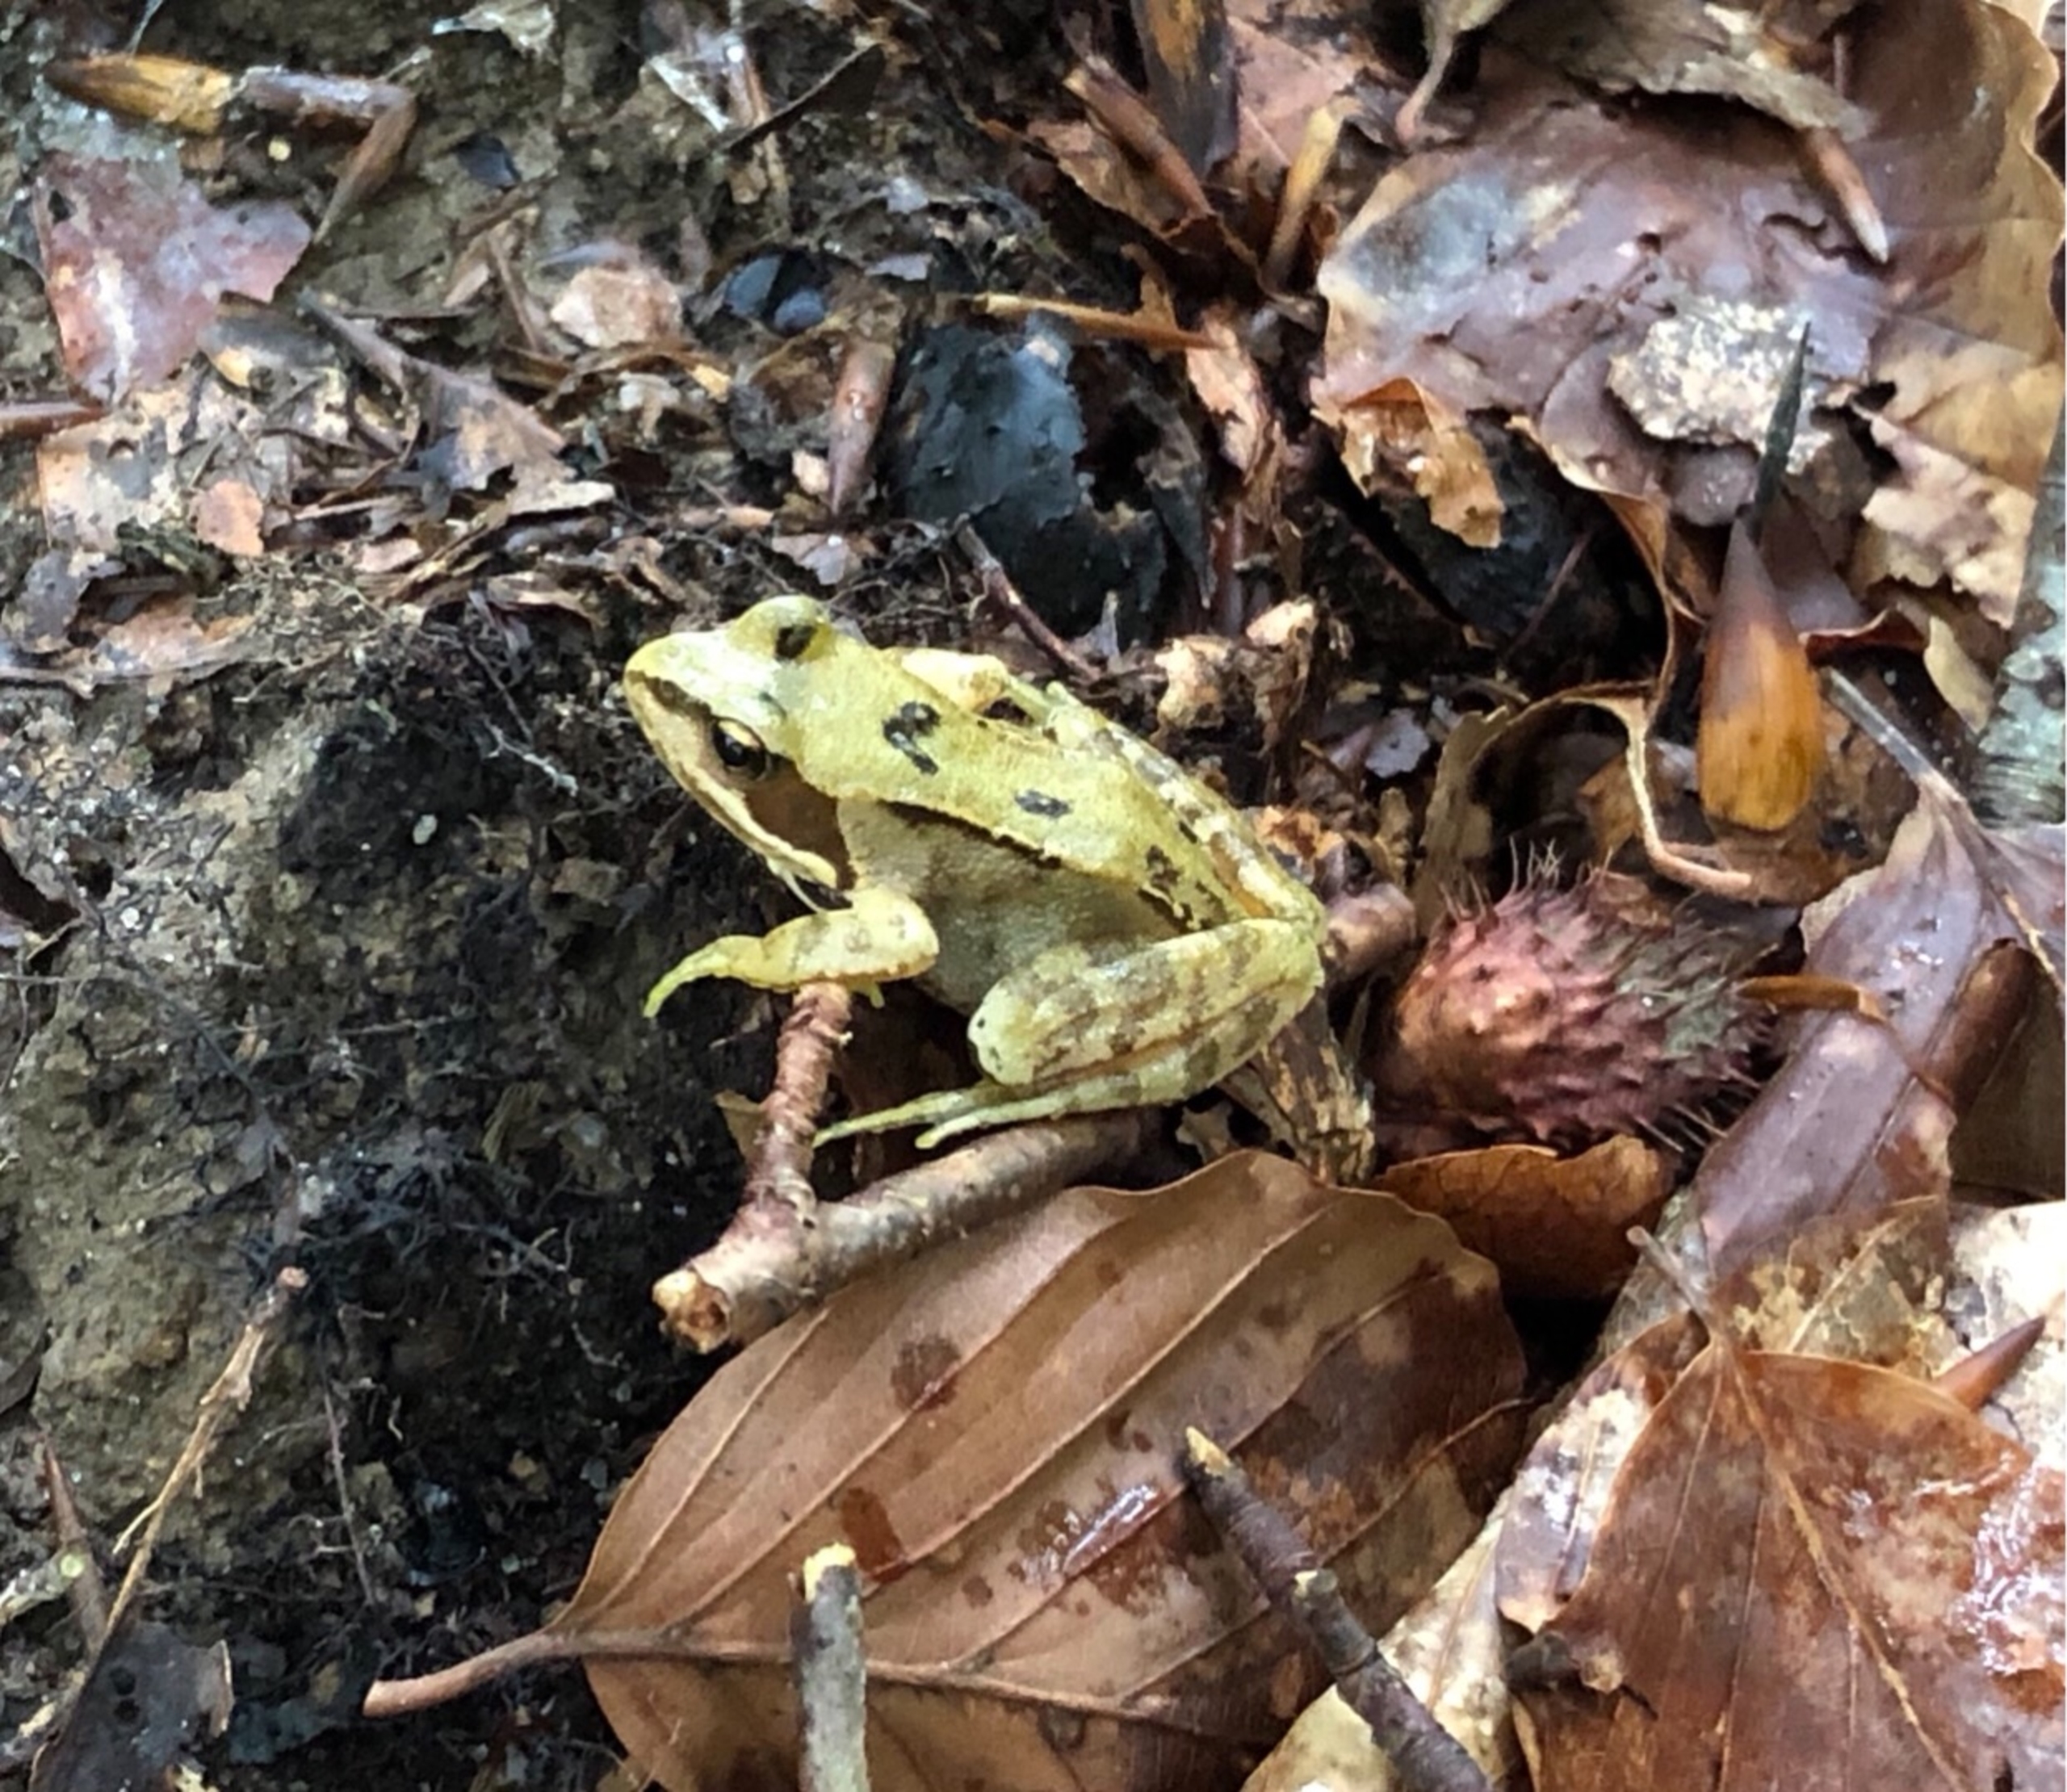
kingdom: Animalia
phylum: Chordata
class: Amphibia
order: Anura
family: Ranidae
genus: Rana
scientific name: Rana temporaria
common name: Butsnudet frø
